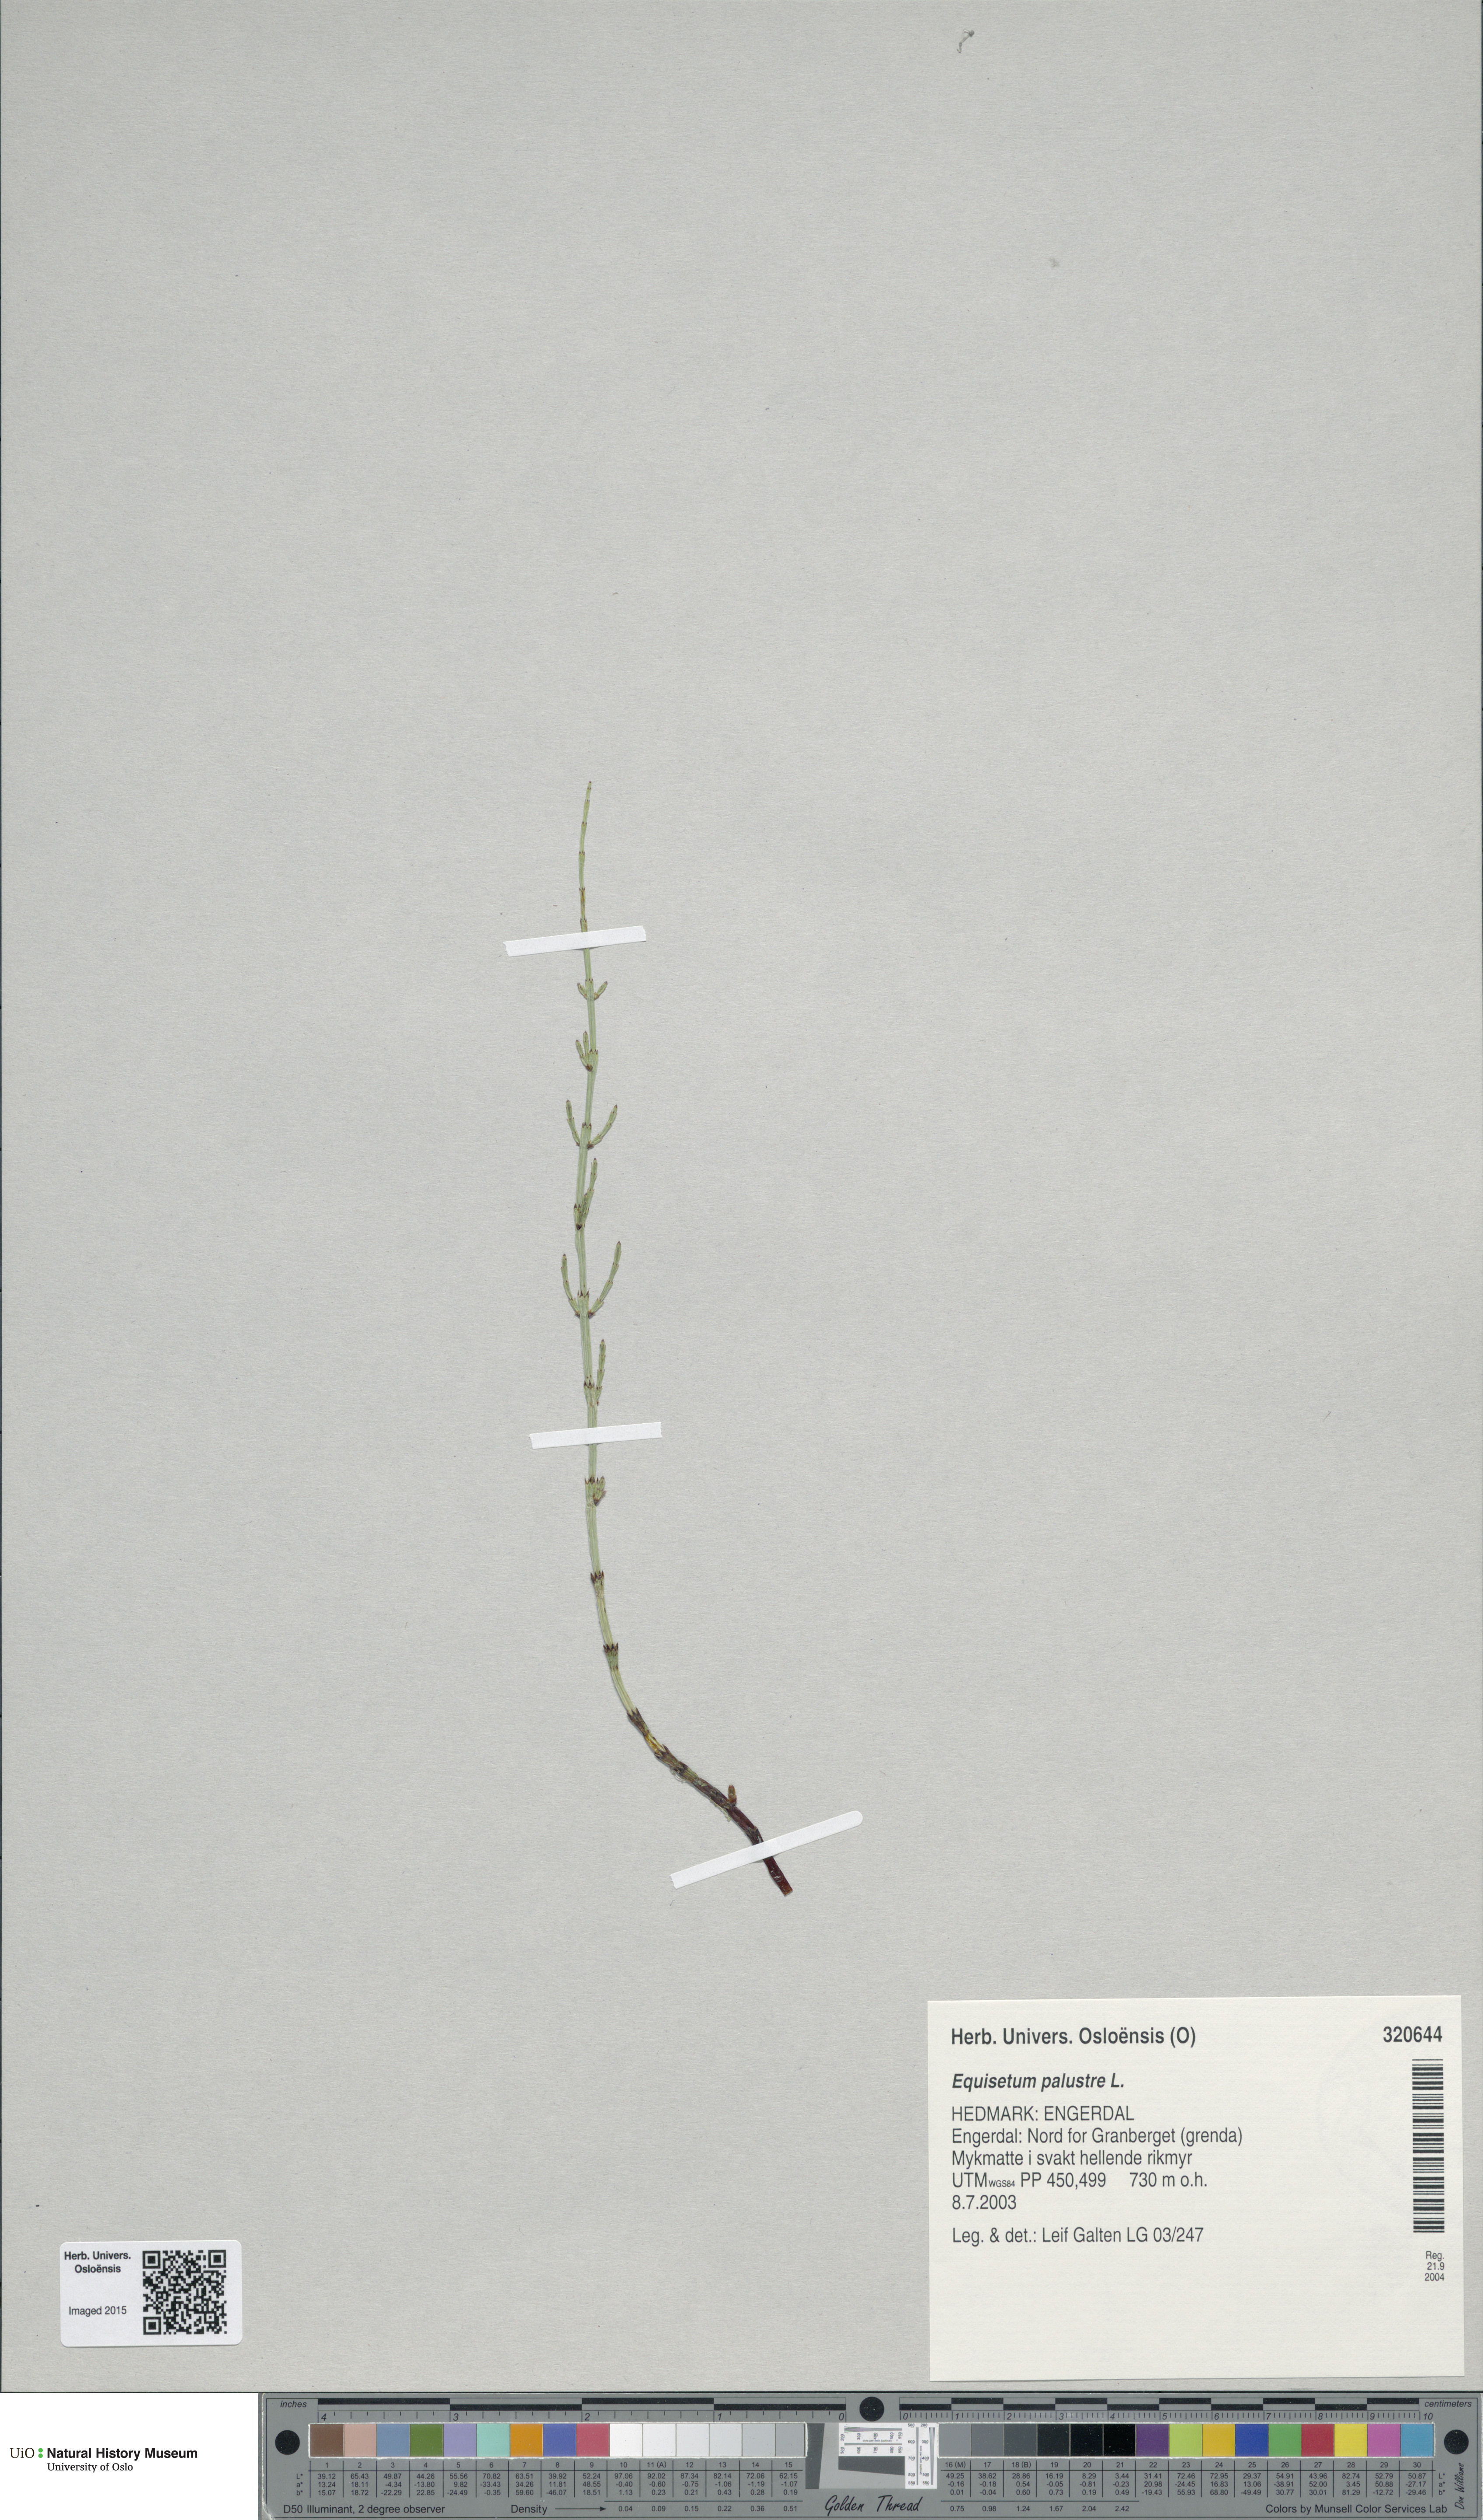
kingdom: Plantae
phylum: Tracheophyta
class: Polypodiopsida
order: Equisetales
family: Equisetaceae
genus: Equisetum
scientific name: Equisetum palustre
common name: Marsh horsetail
